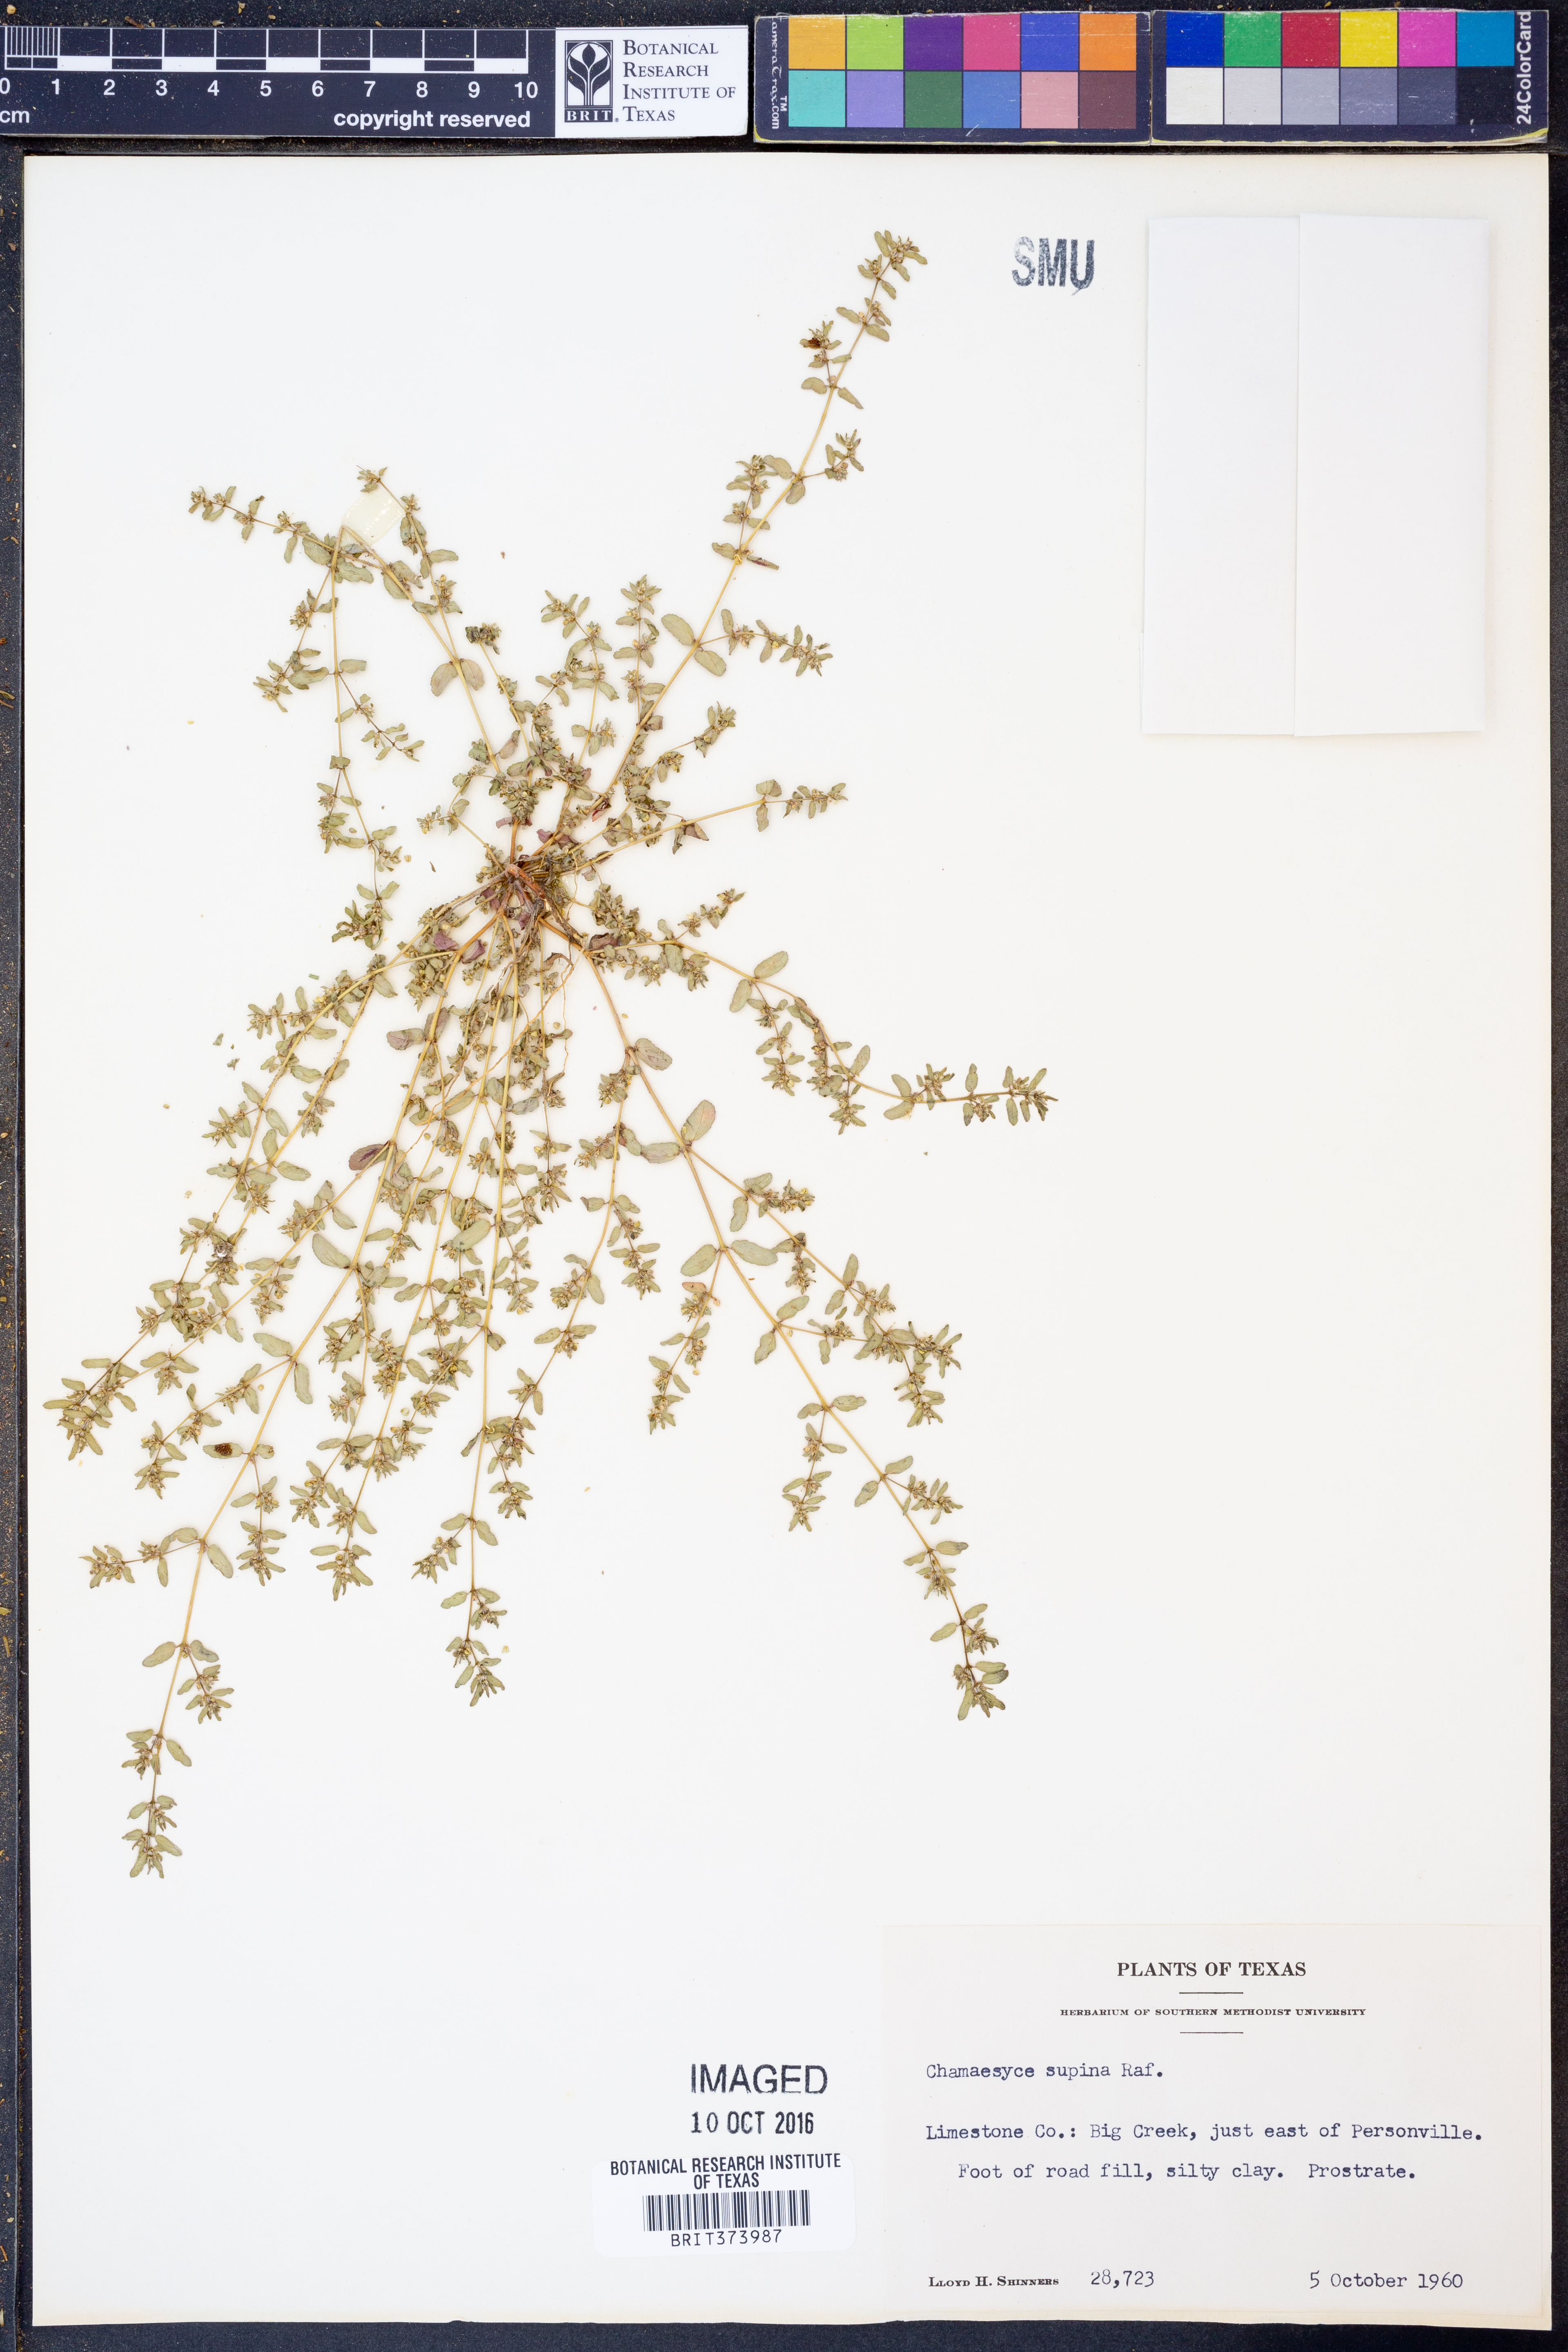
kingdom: Plantae
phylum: Tracheophyta
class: Magnoliopsida
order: Malpighiales
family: Euphorbiaceae
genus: Euphorbia
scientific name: Euphorbia maculata
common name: Spotted spurge
